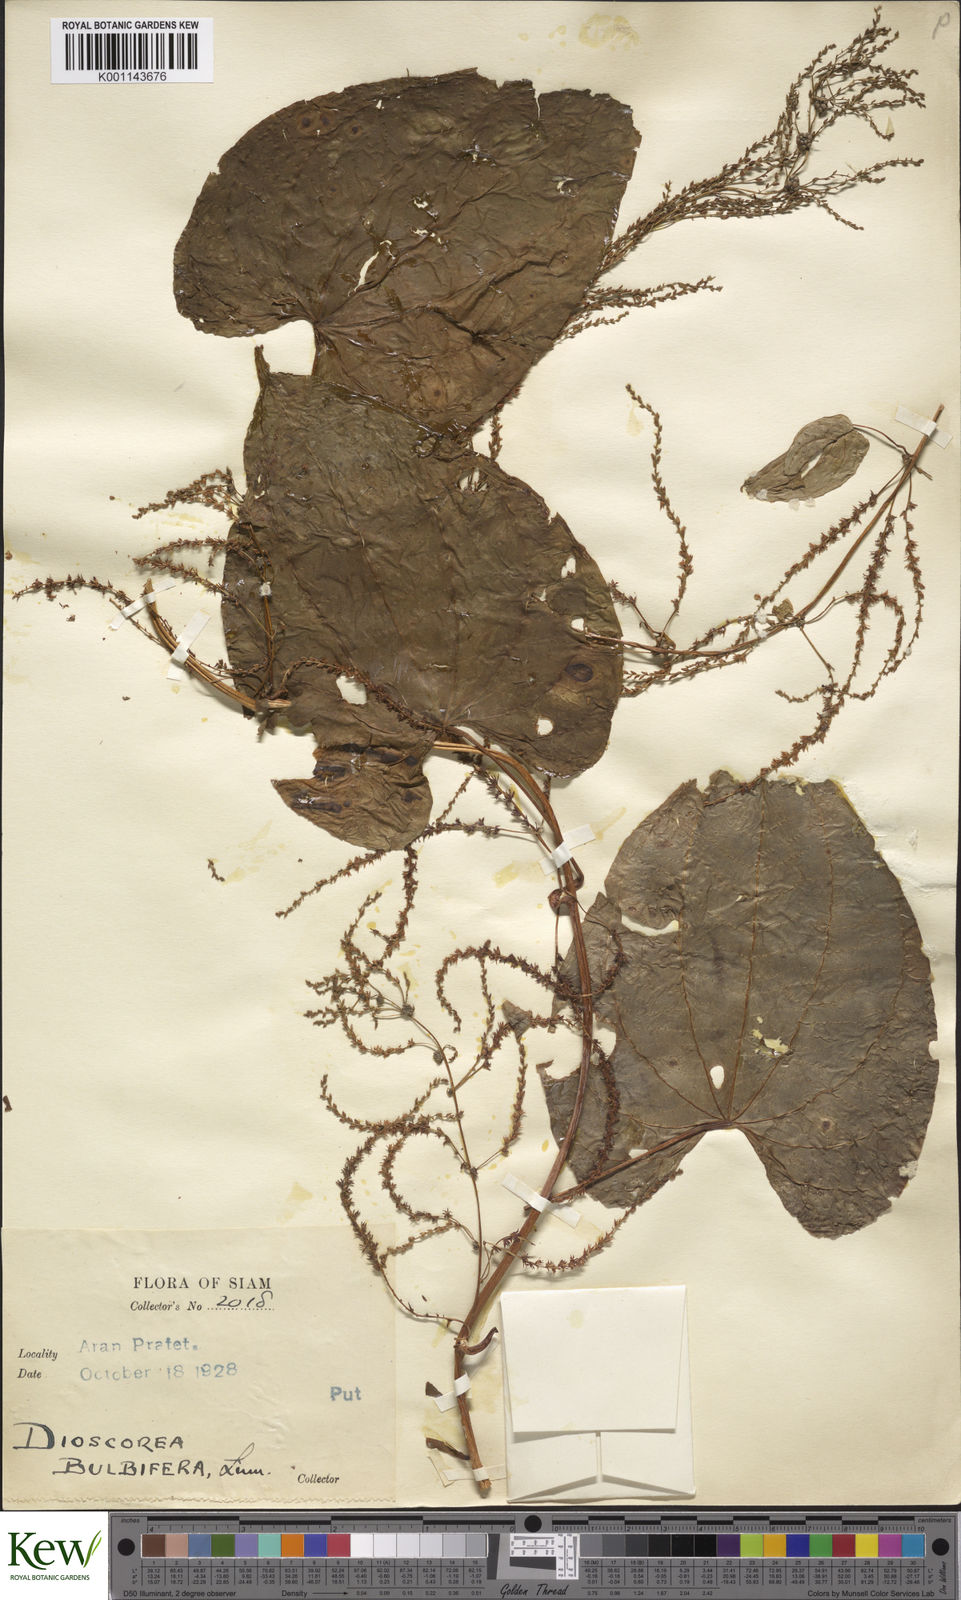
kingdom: Plantae
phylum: Tracheophyta
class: Liliopsida
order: Dioscoreales
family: Dioscoreaceae
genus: Dioscorea
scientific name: Dioscorea bulbifera
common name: Air yam
